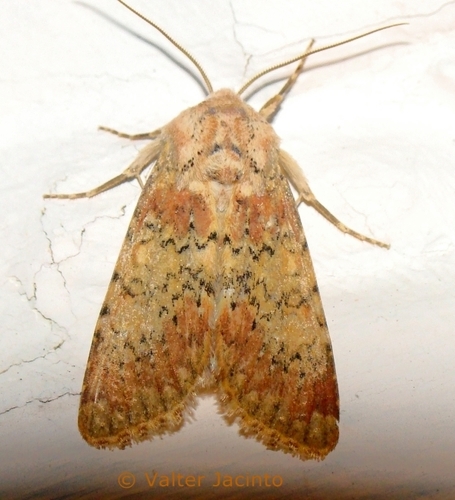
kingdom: Animalia
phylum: Arthropoda
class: Insecta
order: Lepidoptera
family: Noctuidae
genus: Polymixis
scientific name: Polymixis argillaceago
